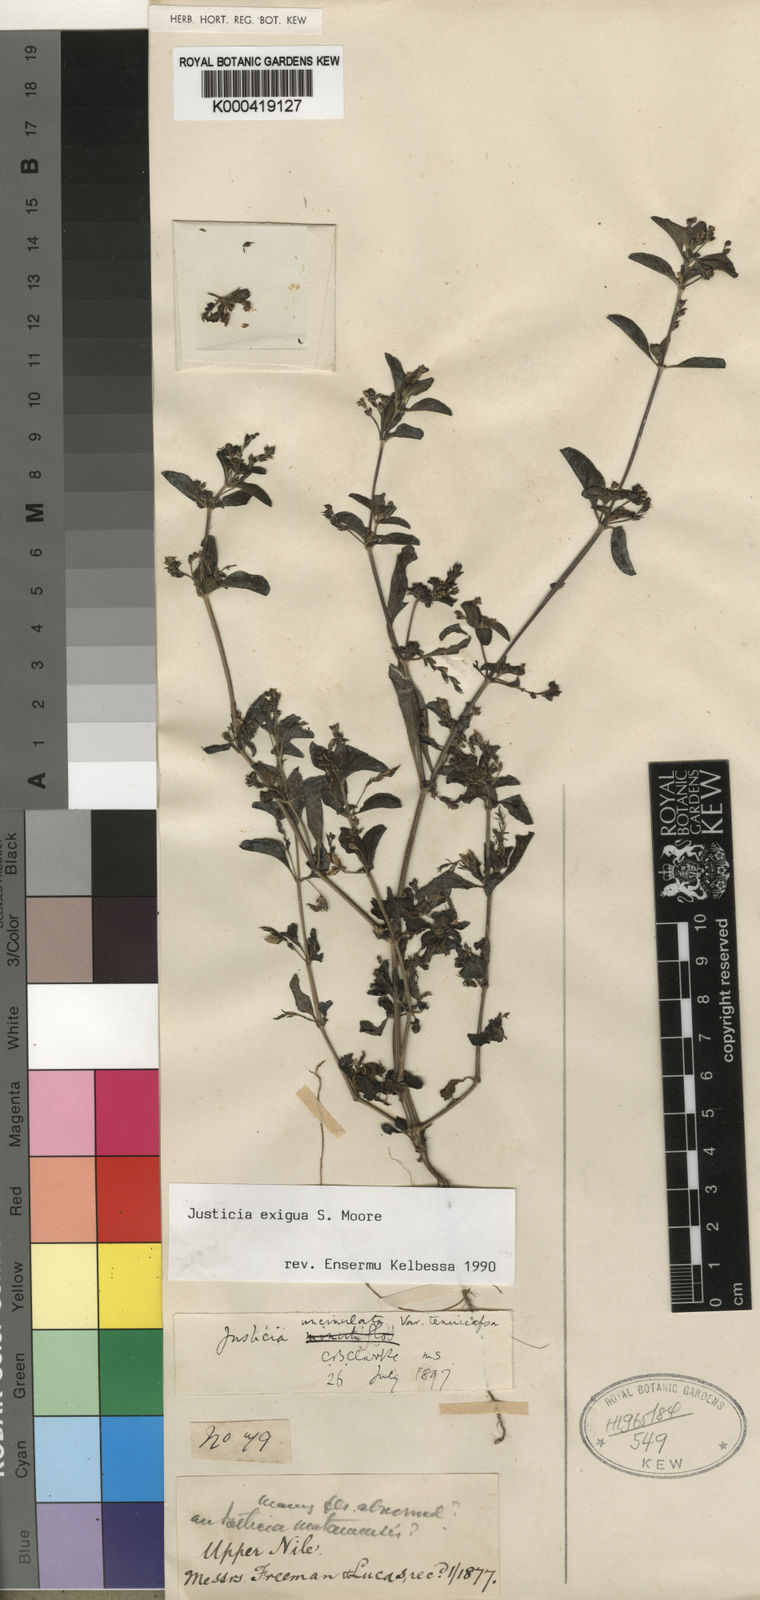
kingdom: Plantae
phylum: Tracheophyta
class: Magnoliopsida
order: Lamiales
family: Acanthaceae
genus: Justicia
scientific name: Justicia exigua
